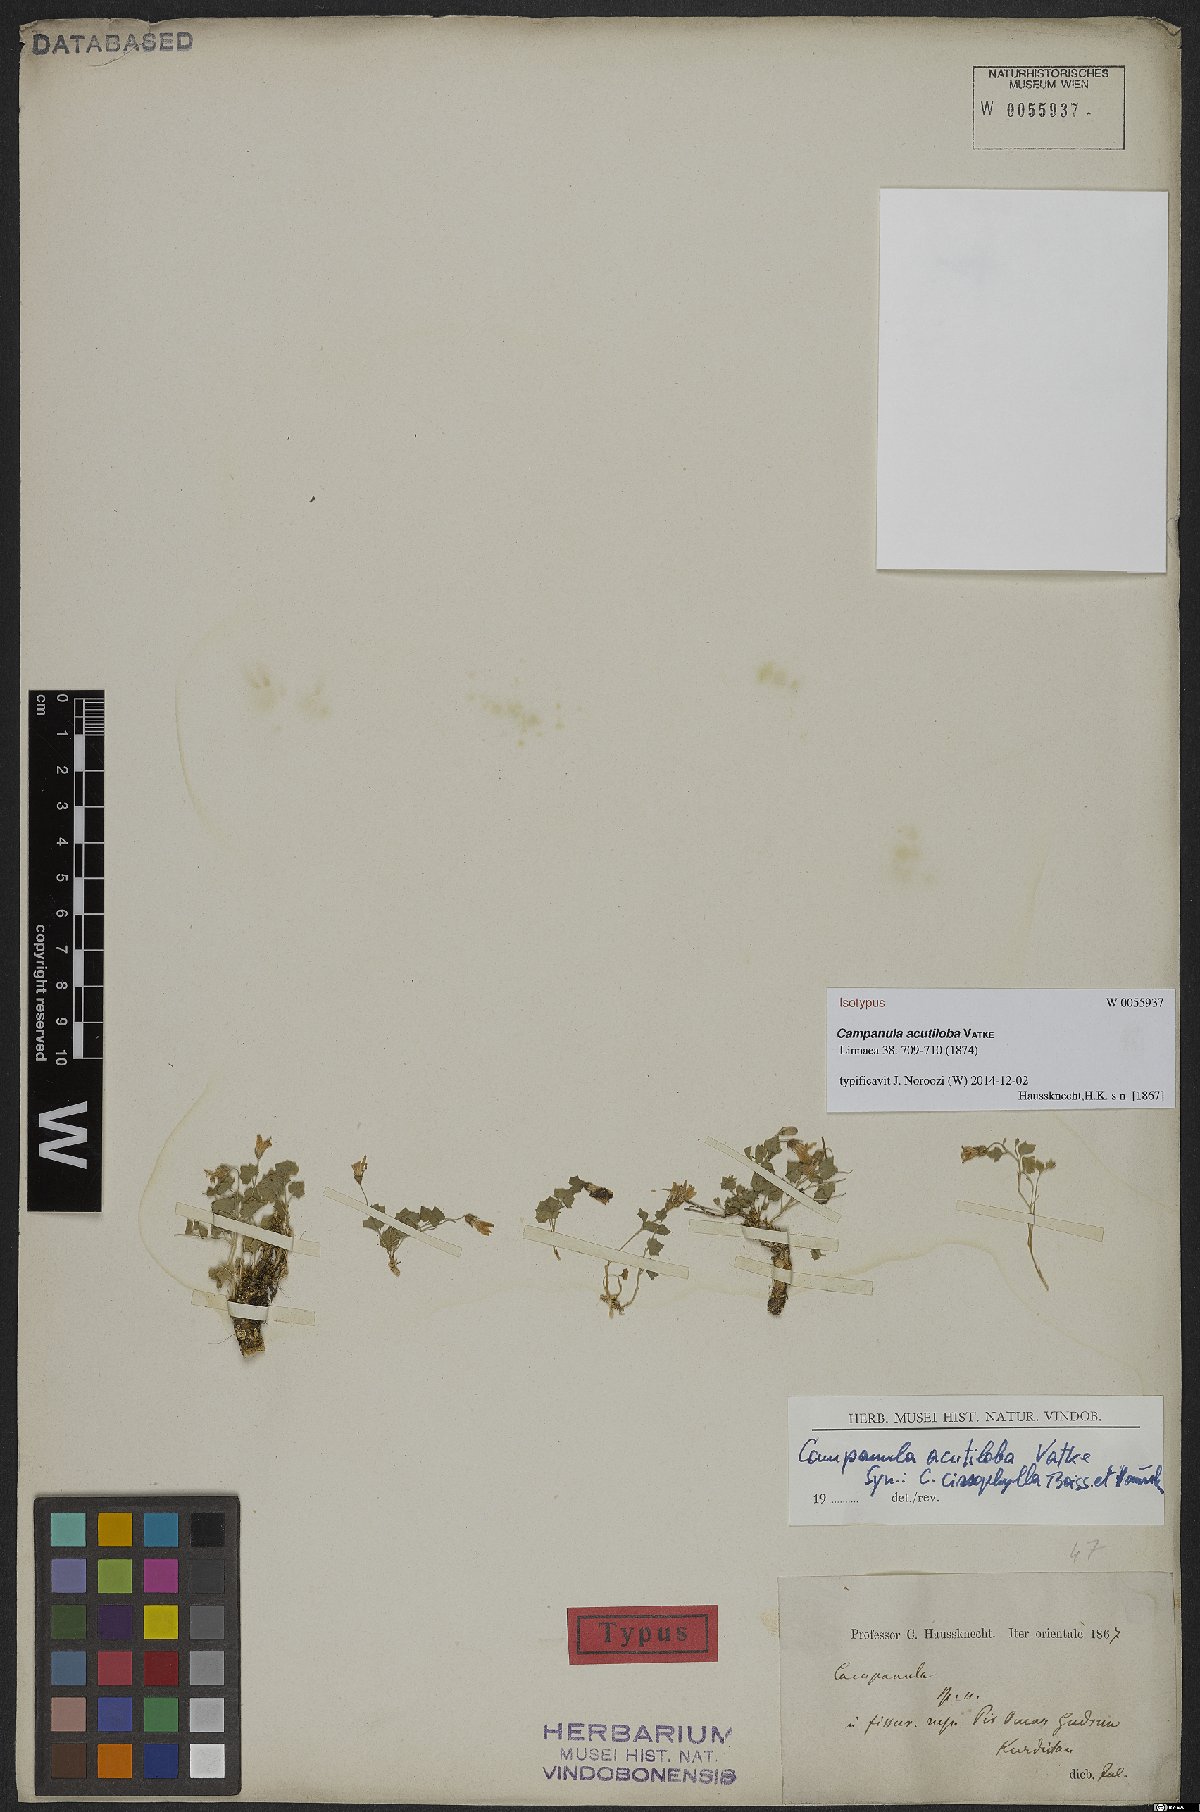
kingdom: Plantae
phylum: Tracheophyta
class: Magnoliopsida
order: Asterales
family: Campanulaceae
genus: Campanula
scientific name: Campanula acutiloba
